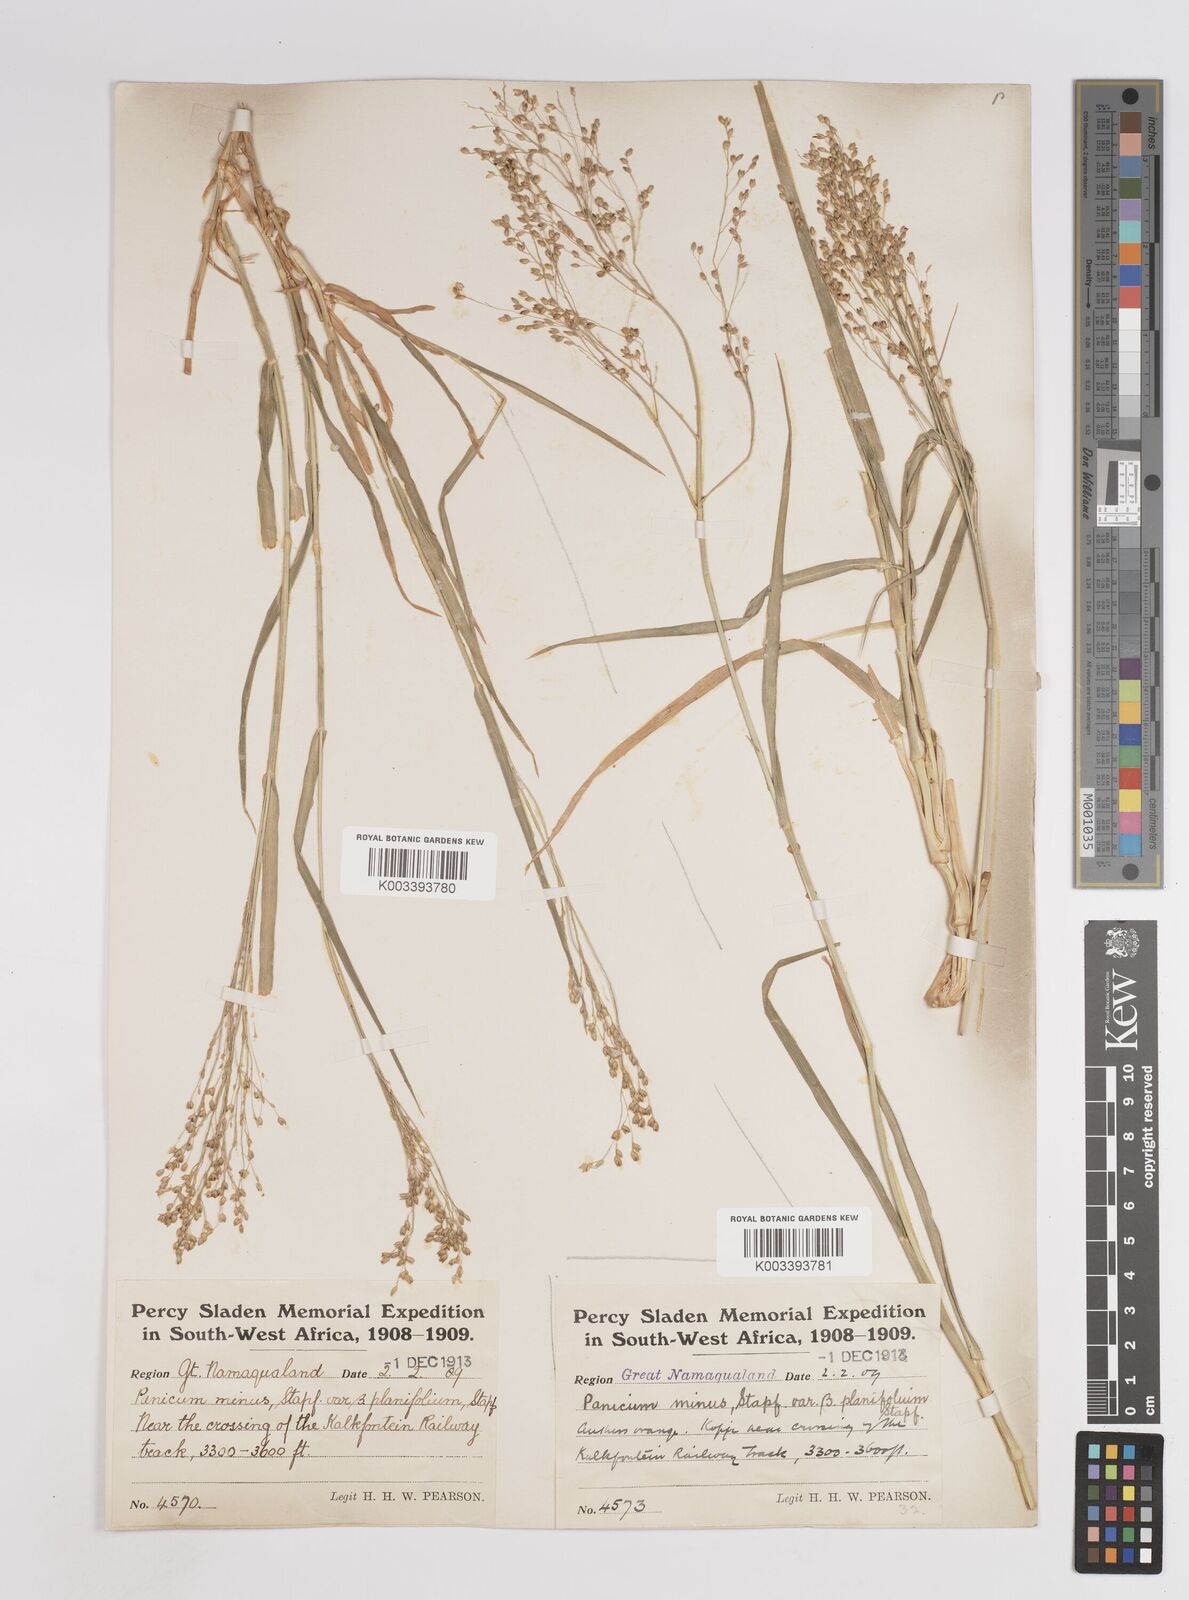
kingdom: Plantae
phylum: Tracheophyta
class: Liliopsida
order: Poales
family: Poaceae
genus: Panicum
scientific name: Panicum arbusculum
